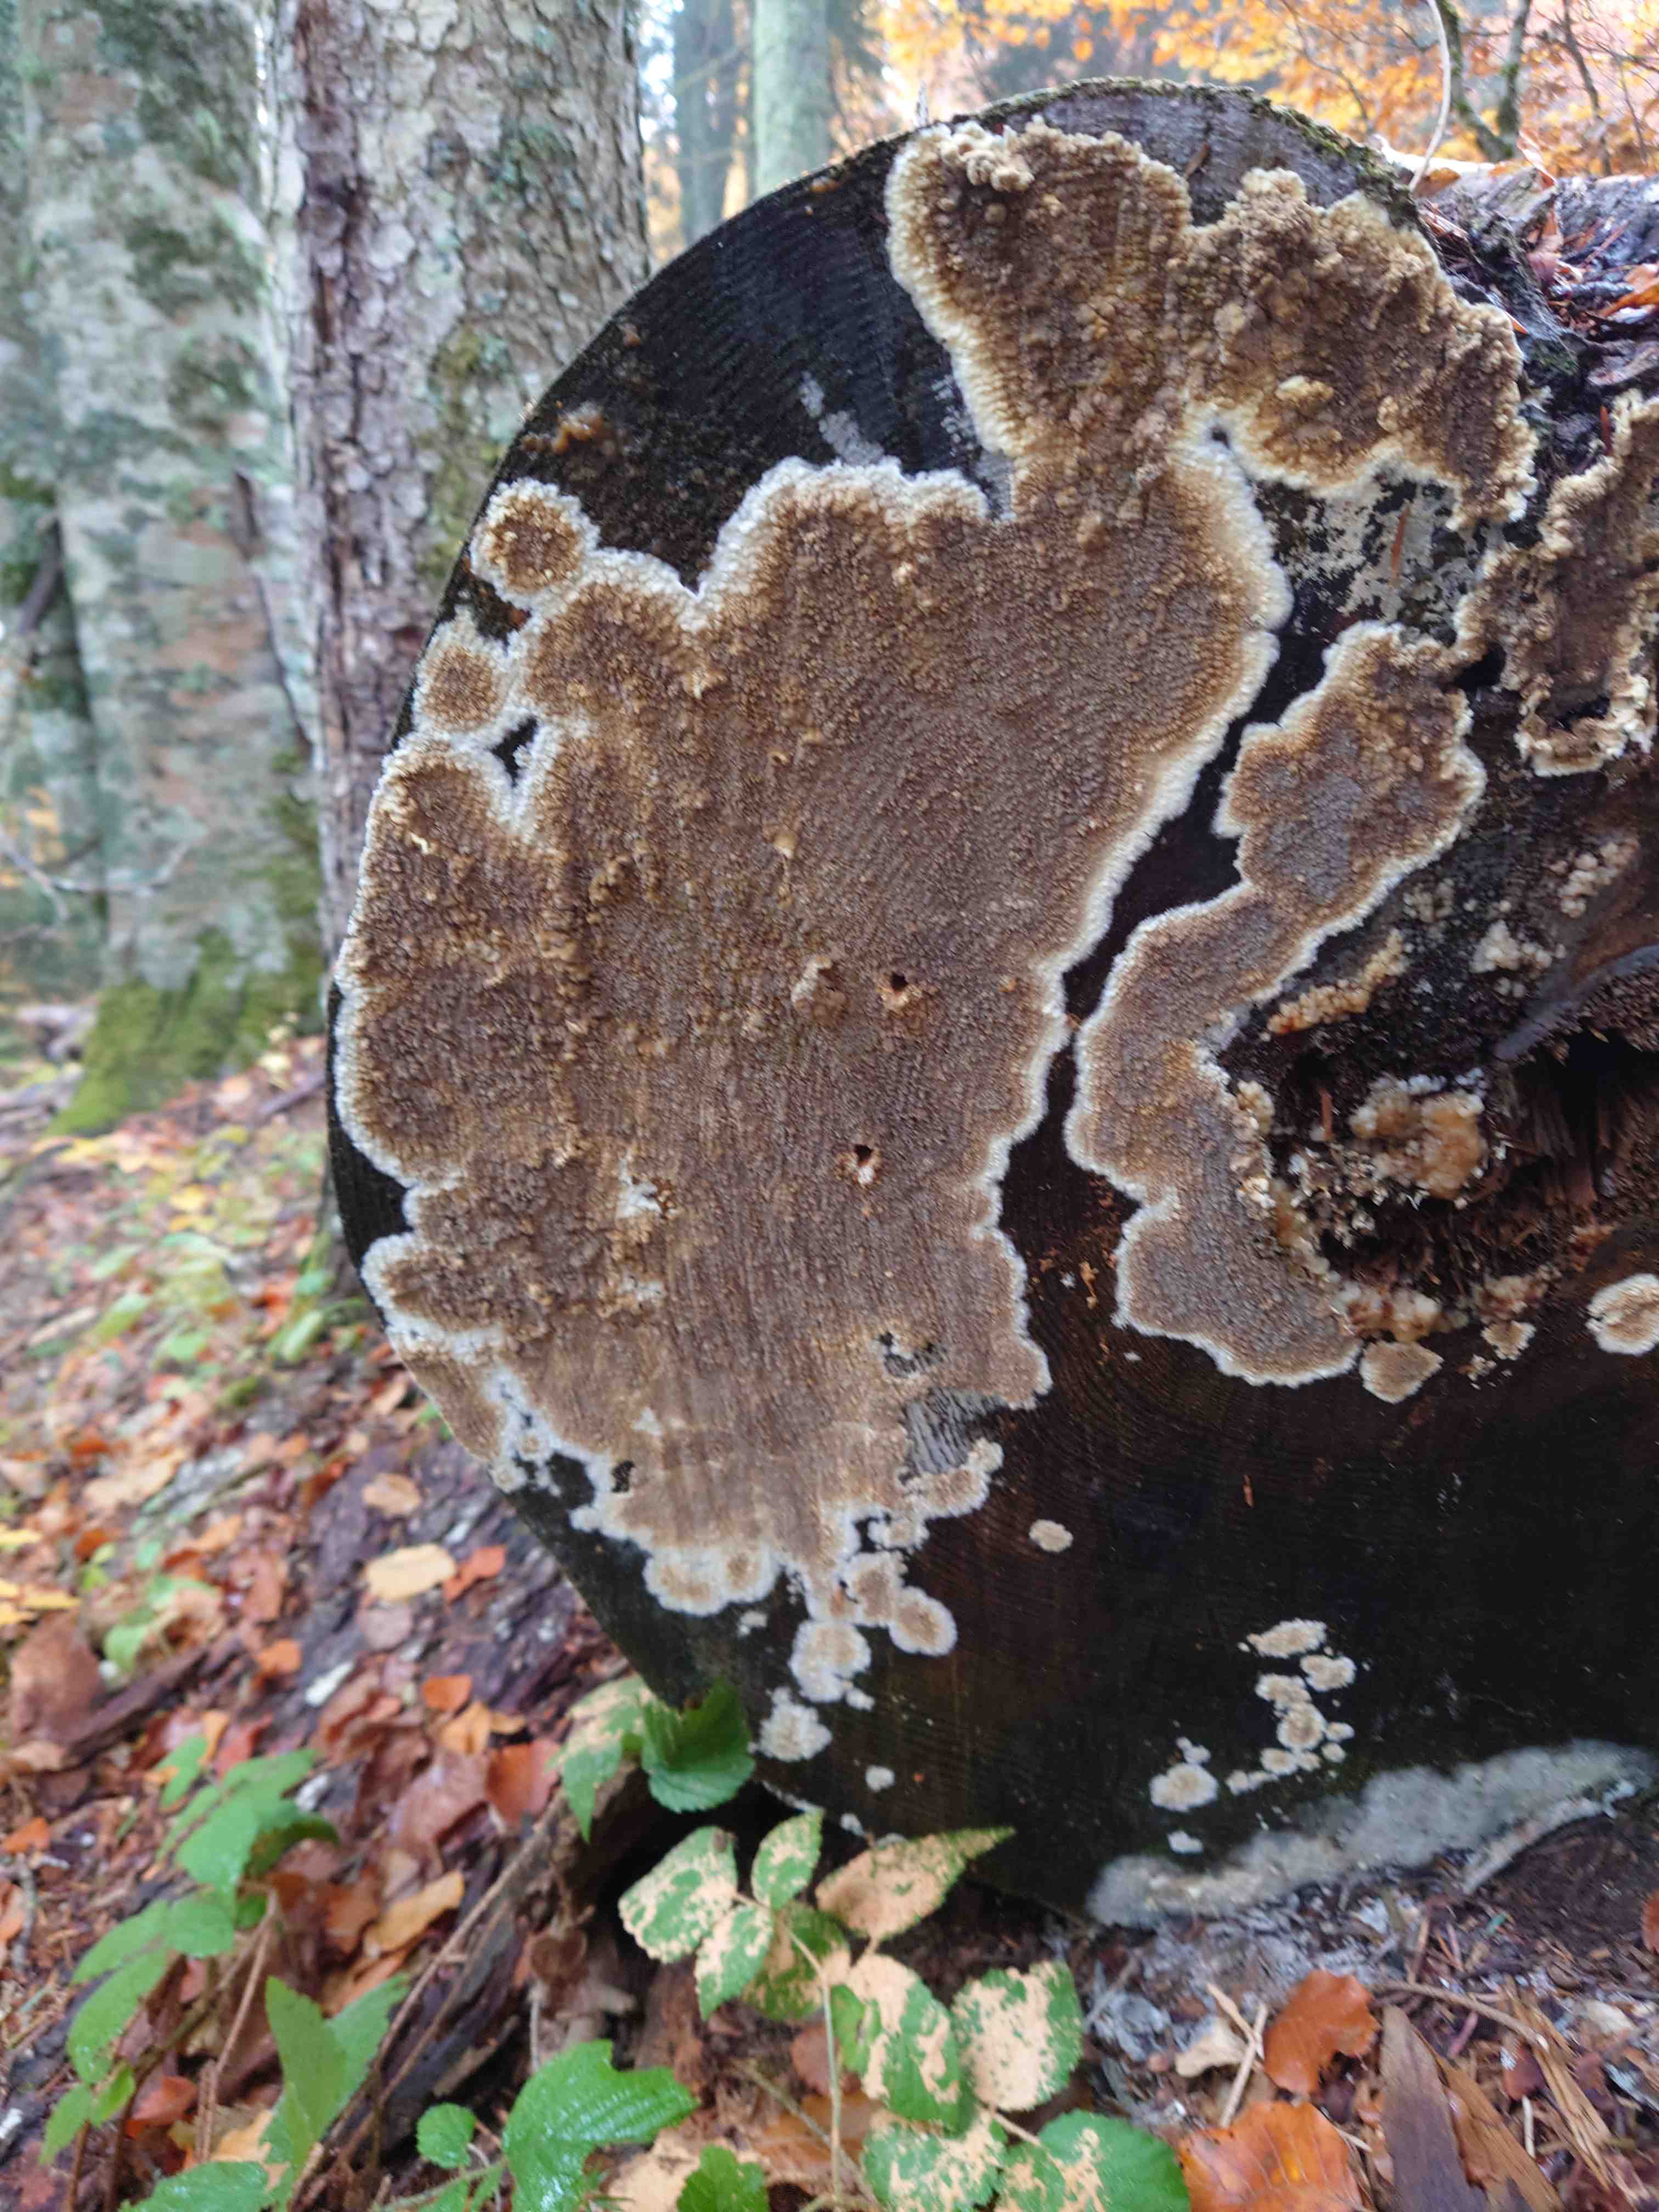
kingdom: Fungi
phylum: Basidiomycota
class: Agaricomycetes
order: Boletales
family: Coniophoraceae
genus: Coniophora
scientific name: Coniophora puteana
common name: gul tømmersvamp
